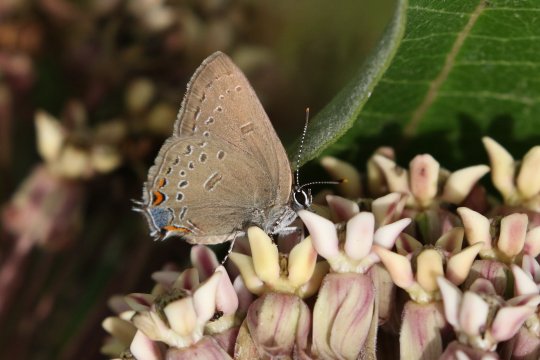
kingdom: Animalia
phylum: Arthropoda
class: Insecta
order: Lepidoptera
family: Lycaenidae
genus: Satyrium
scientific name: Satyrium edwardsii
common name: Edwards' Hairstreak
